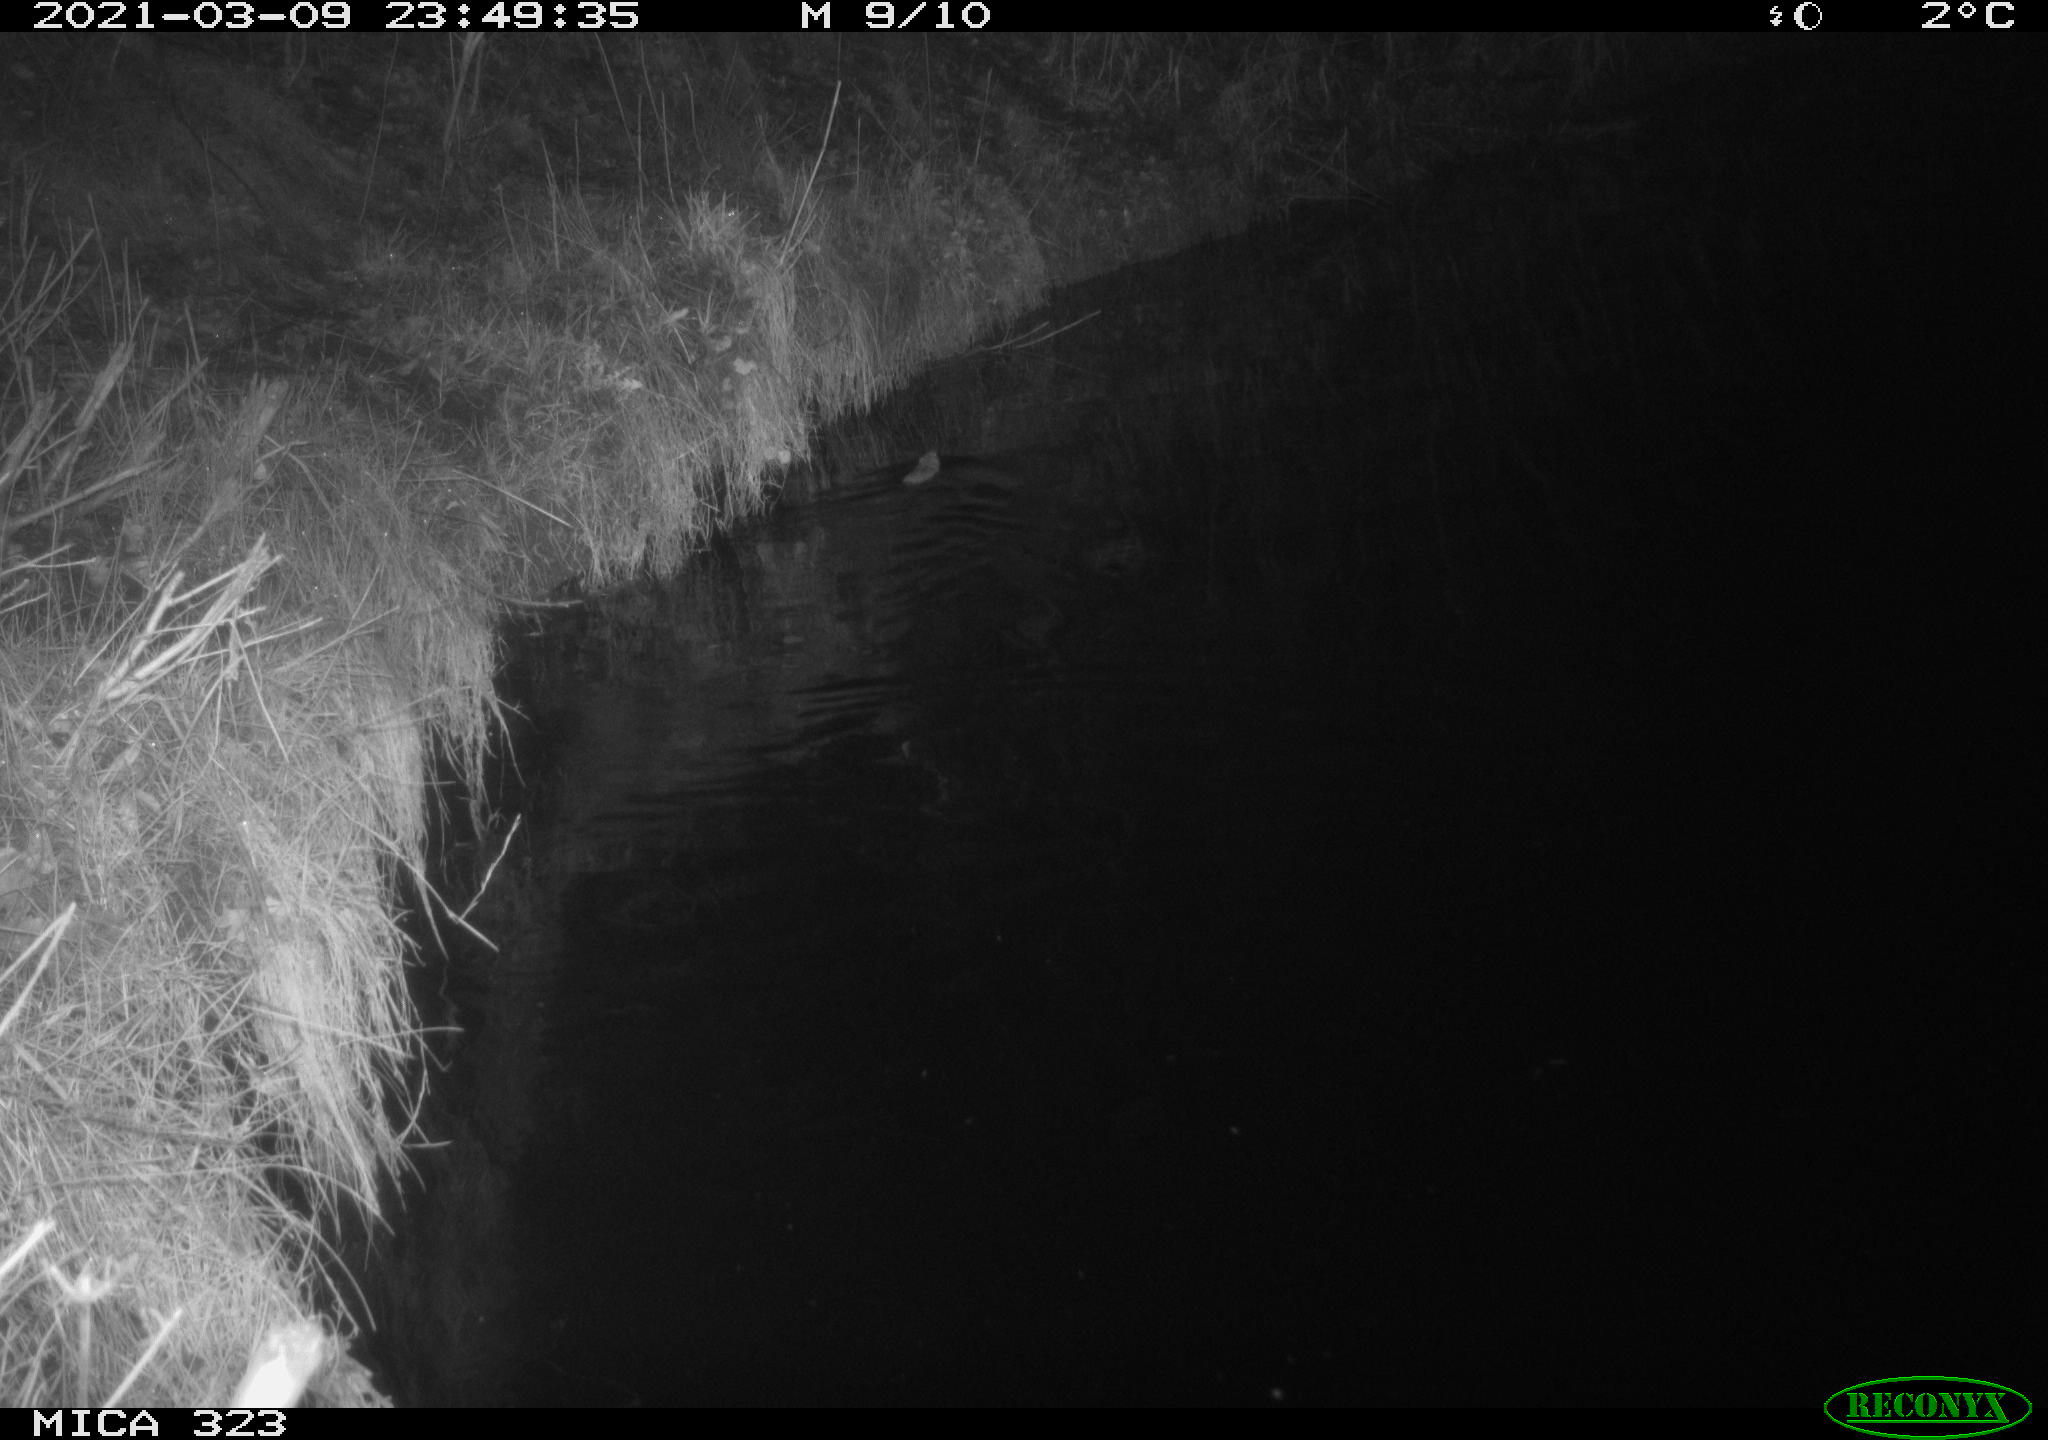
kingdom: Animalia
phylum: Chordata
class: Mammalia
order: Rodentia
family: Muridae
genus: Rattus
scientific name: Rattus norvegicus
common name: Brown rat
